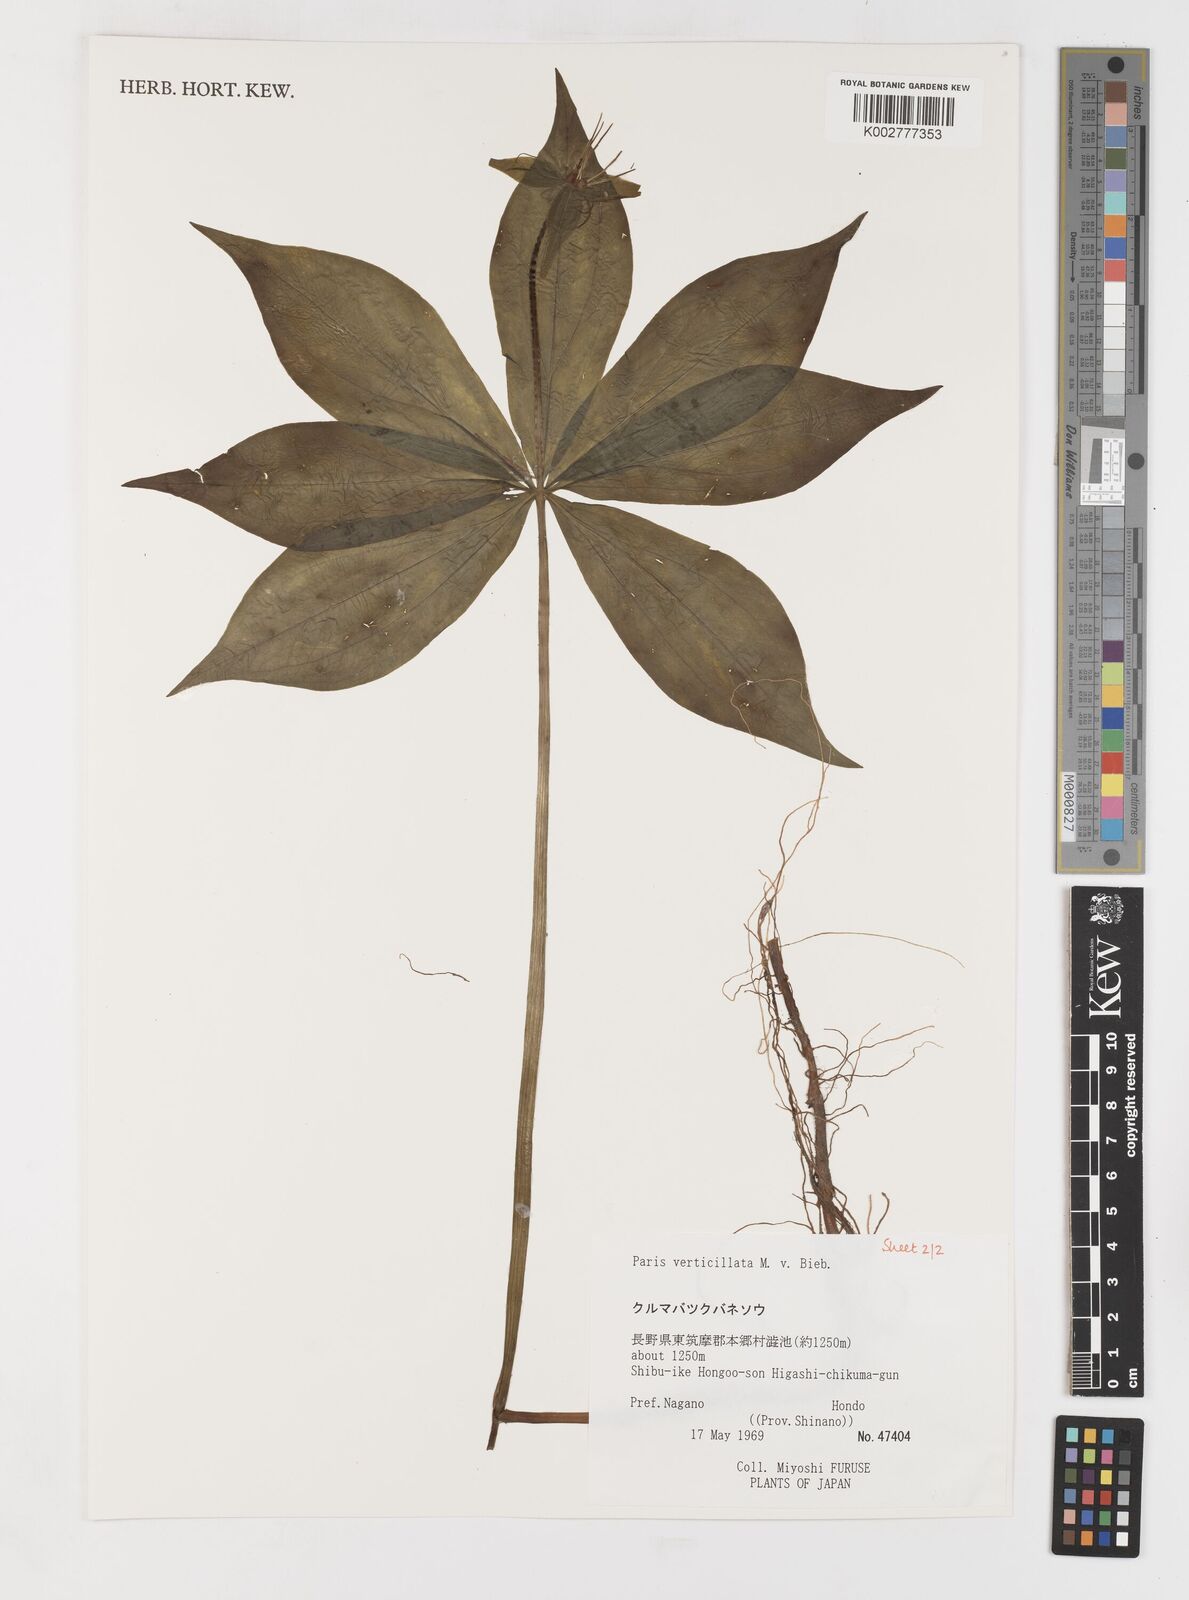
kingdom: Plantae
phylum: Tracheophyta
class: Liliopsida
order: Liliales
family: Melanthiaceae
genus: Paris
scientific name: Paris verticillata
